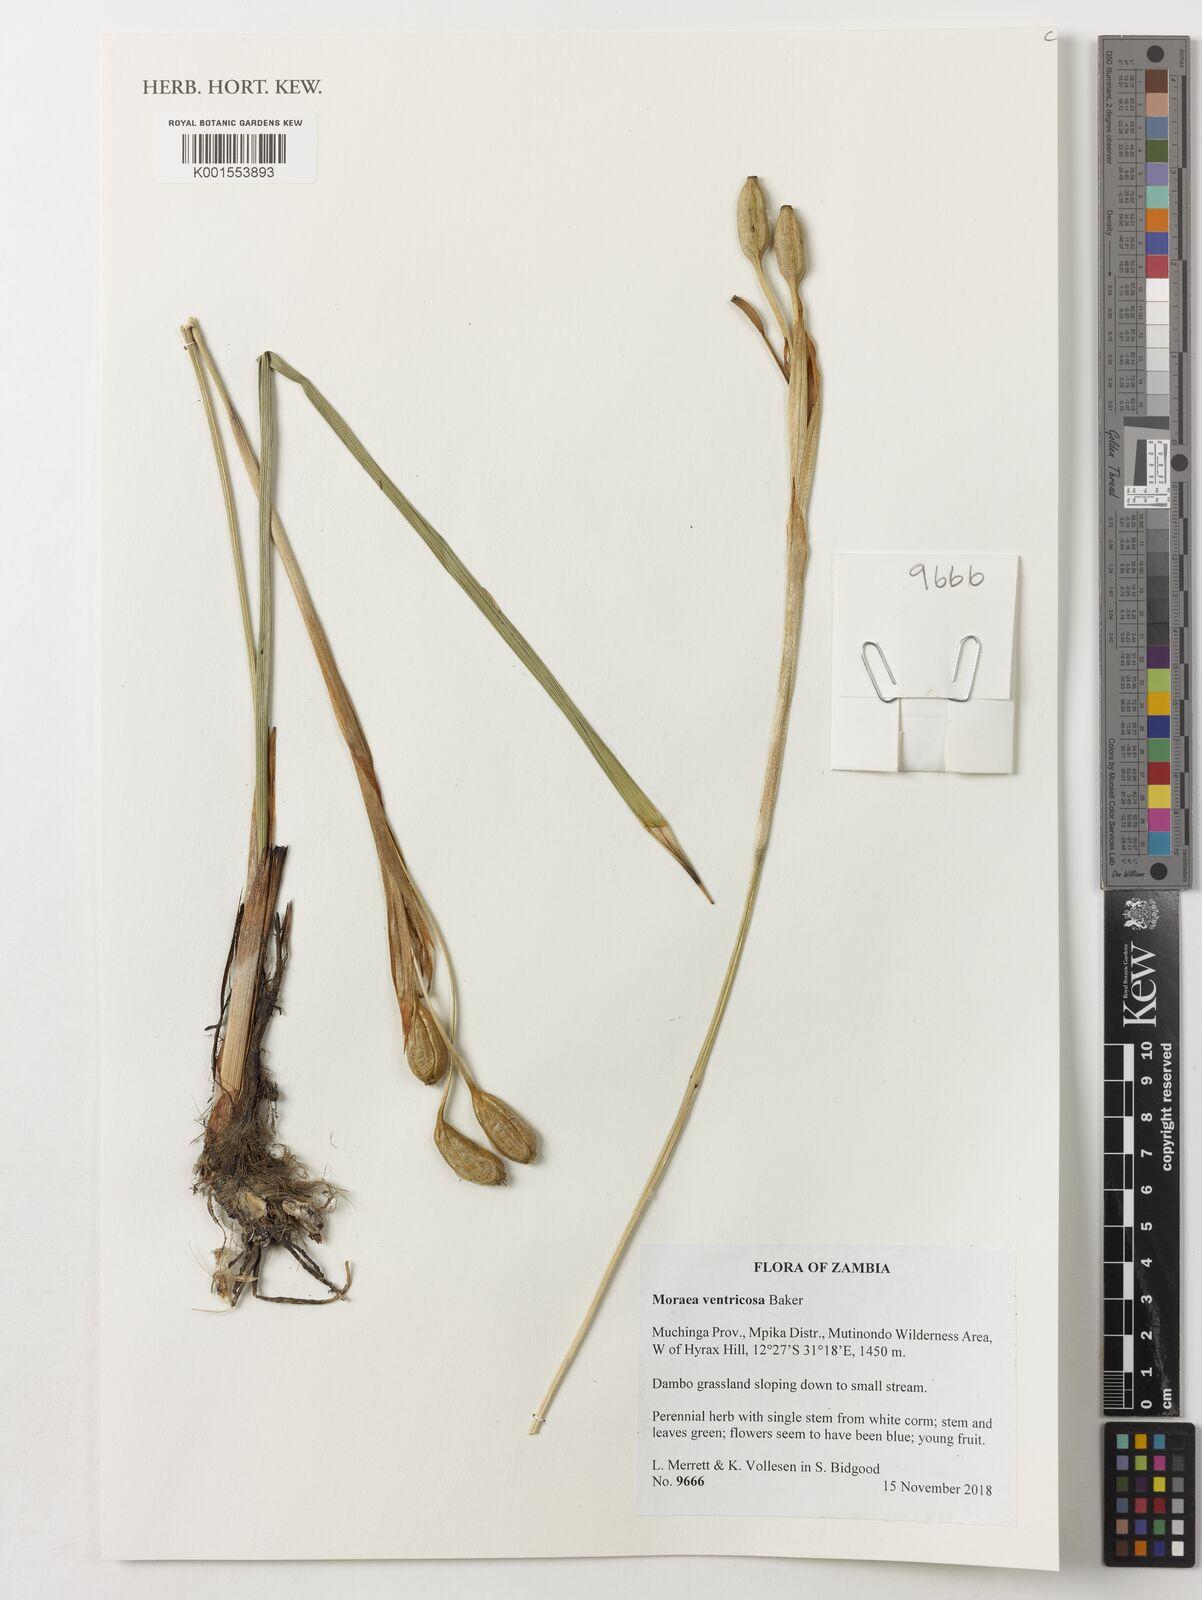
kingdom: Plantae
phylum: Tracheophyta
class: Liliopsida
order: Asparagales
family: Iridaceae
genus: Moraea
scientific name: Moraea ventricosa
